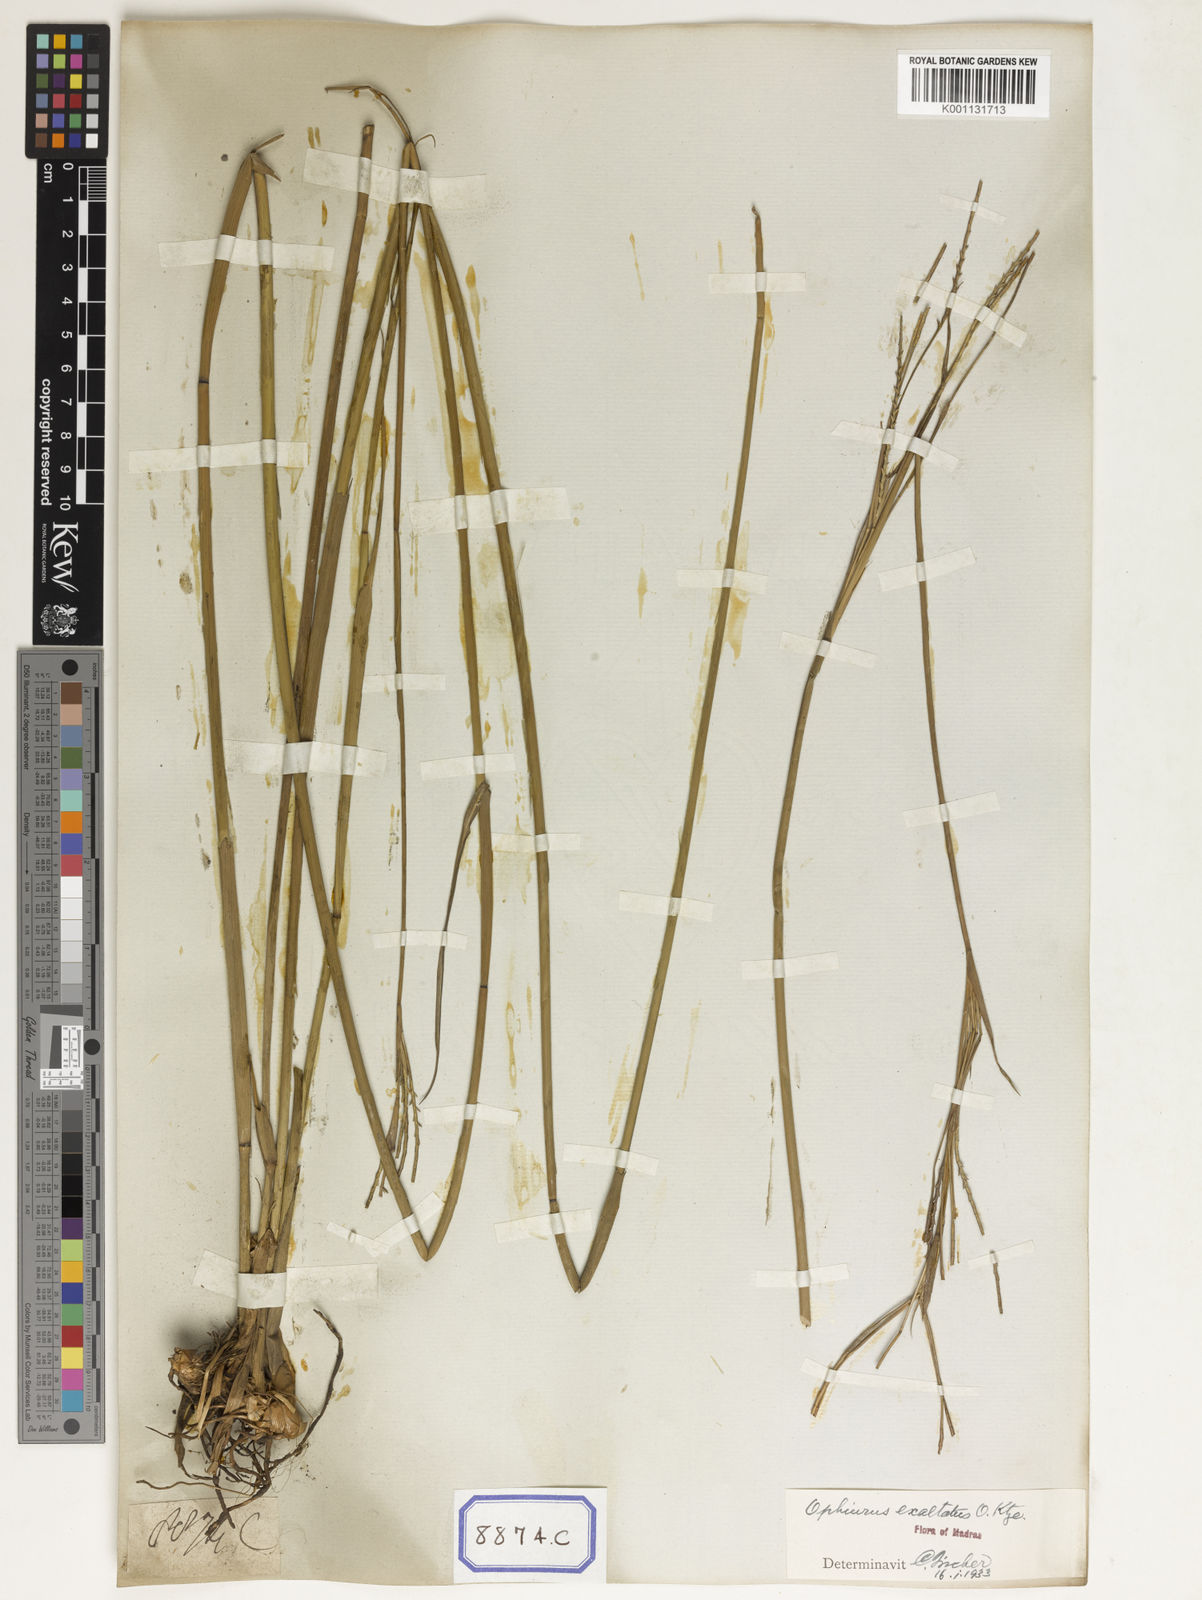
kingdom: Plantae
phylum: Tracheophyta
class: Liliopsida
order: Poales
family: Poaceae
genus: Ophiuros
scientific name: Ophiuros
